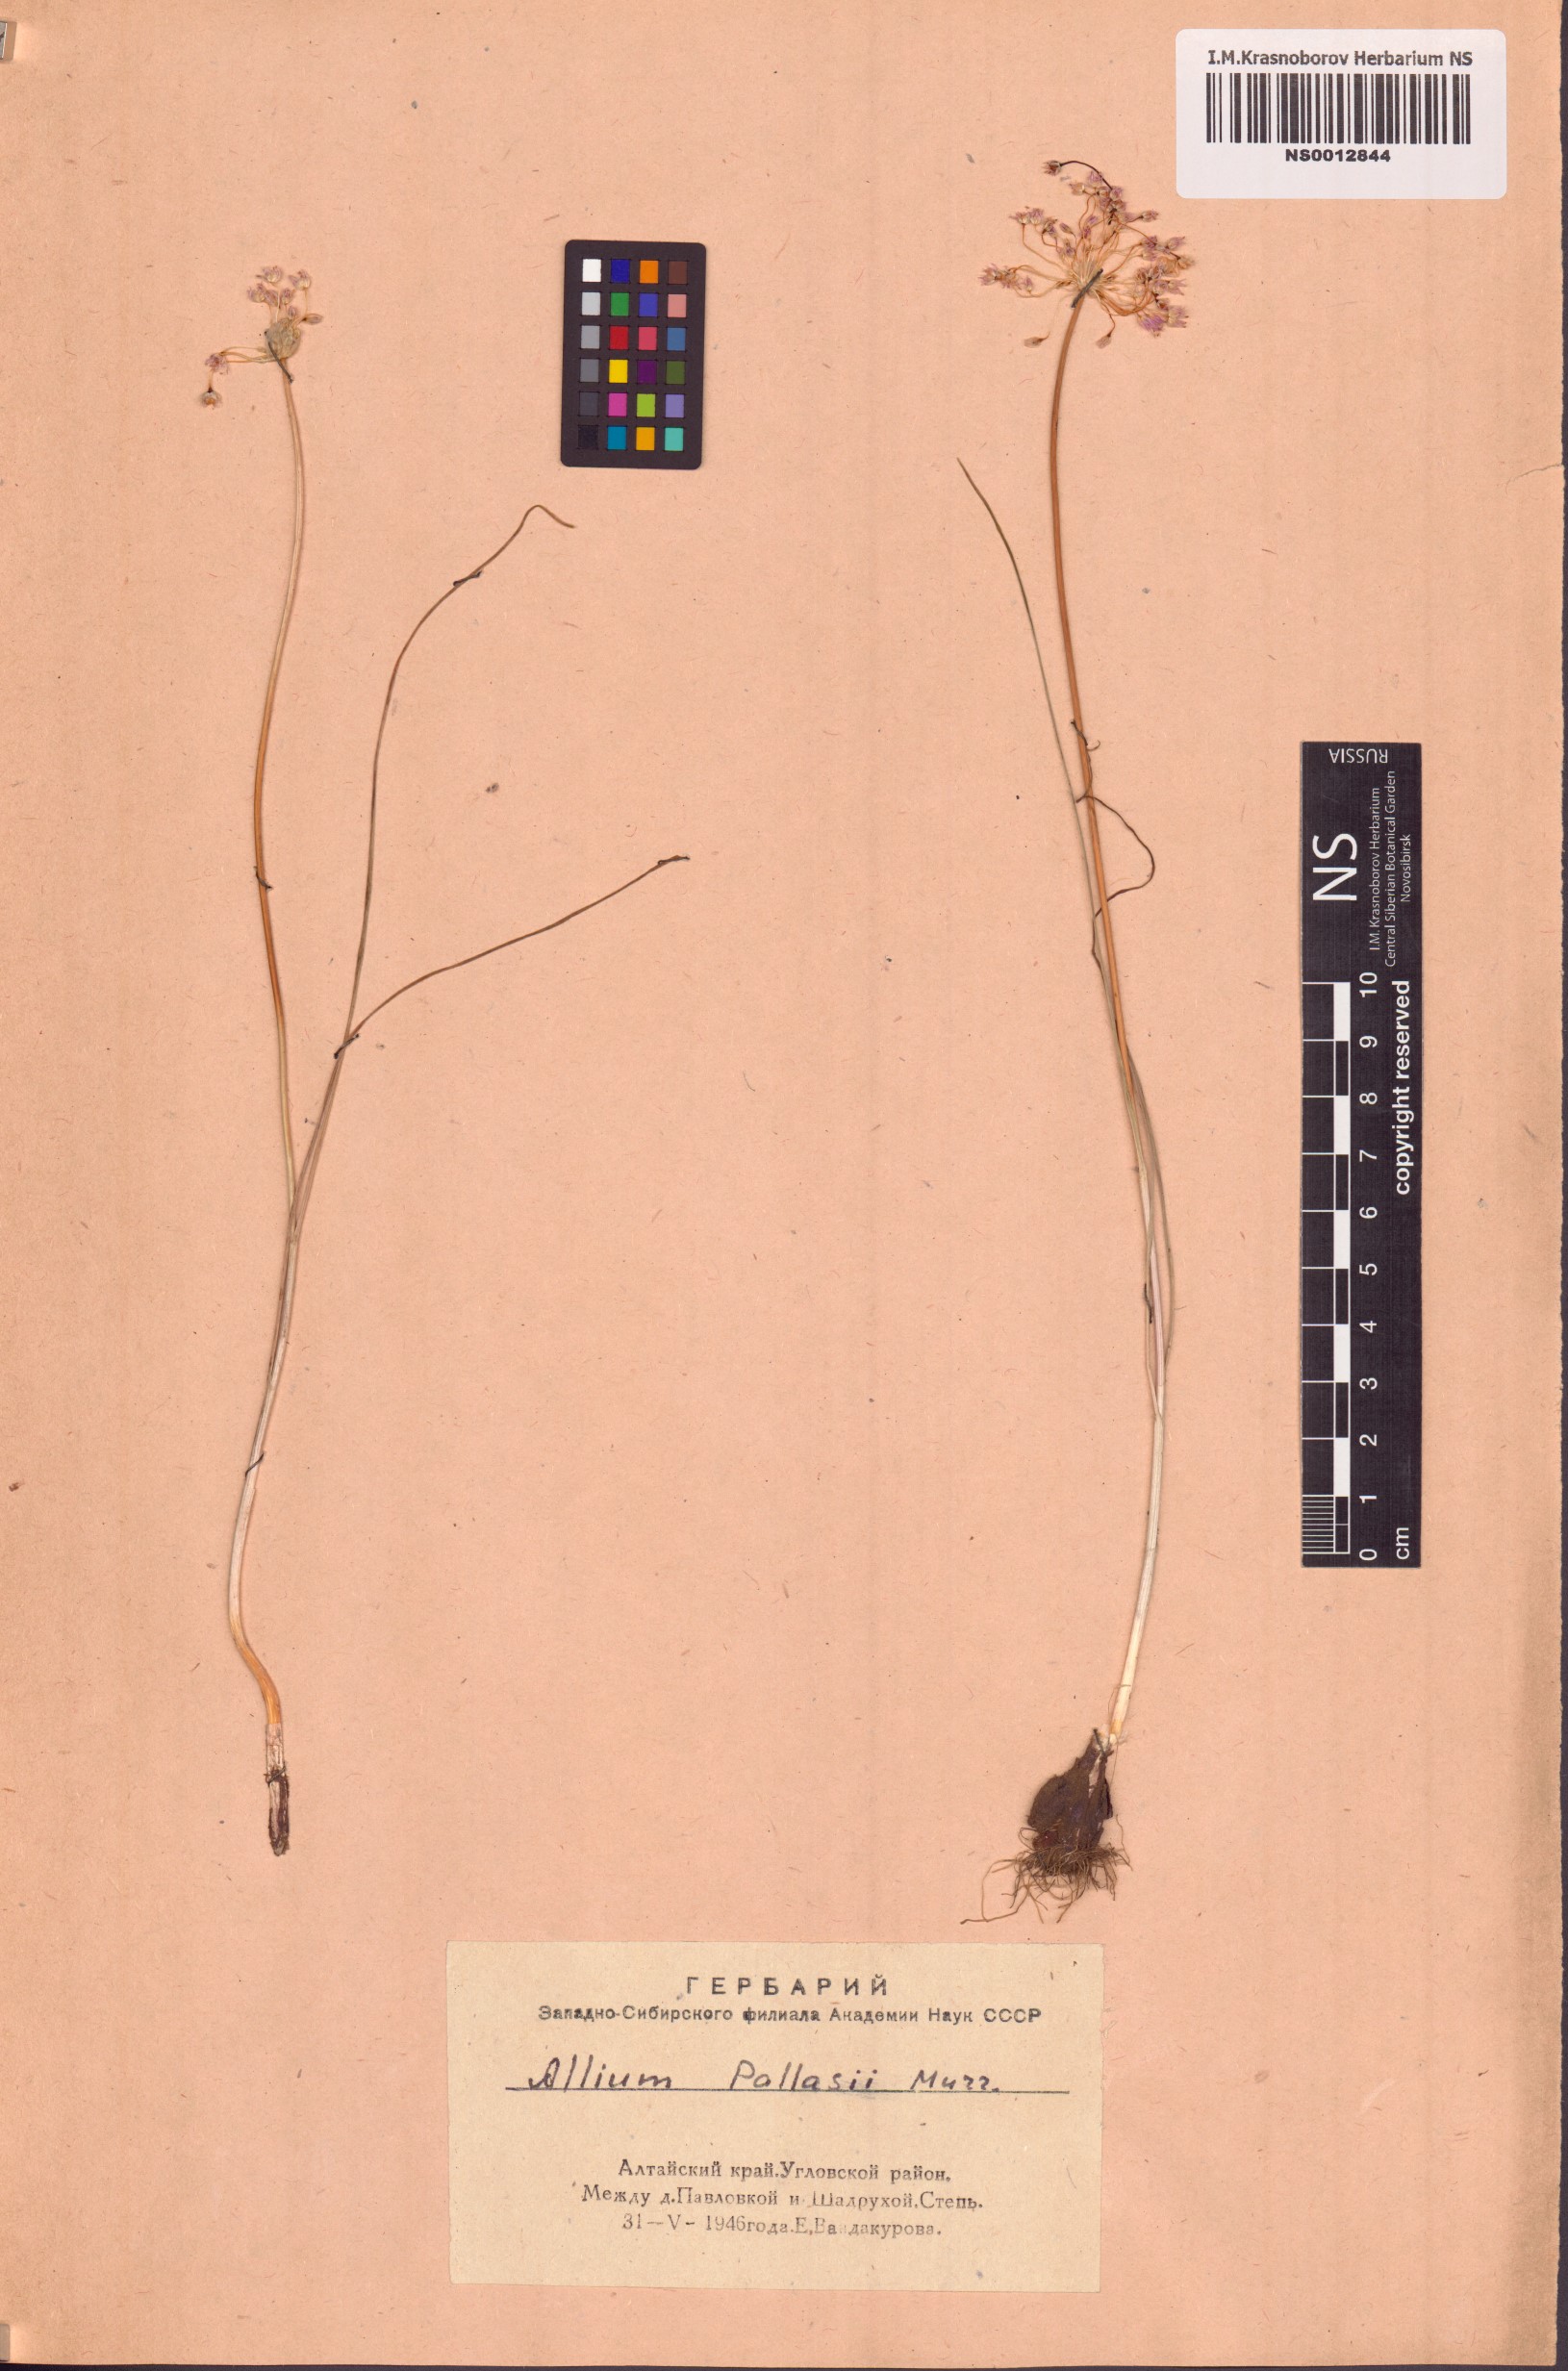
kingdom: Plantae
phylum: Tracheophyta
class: Liliopsida
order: Asparagales
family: Amaryllidaceae
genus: Allium
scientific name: Allium pallasii
